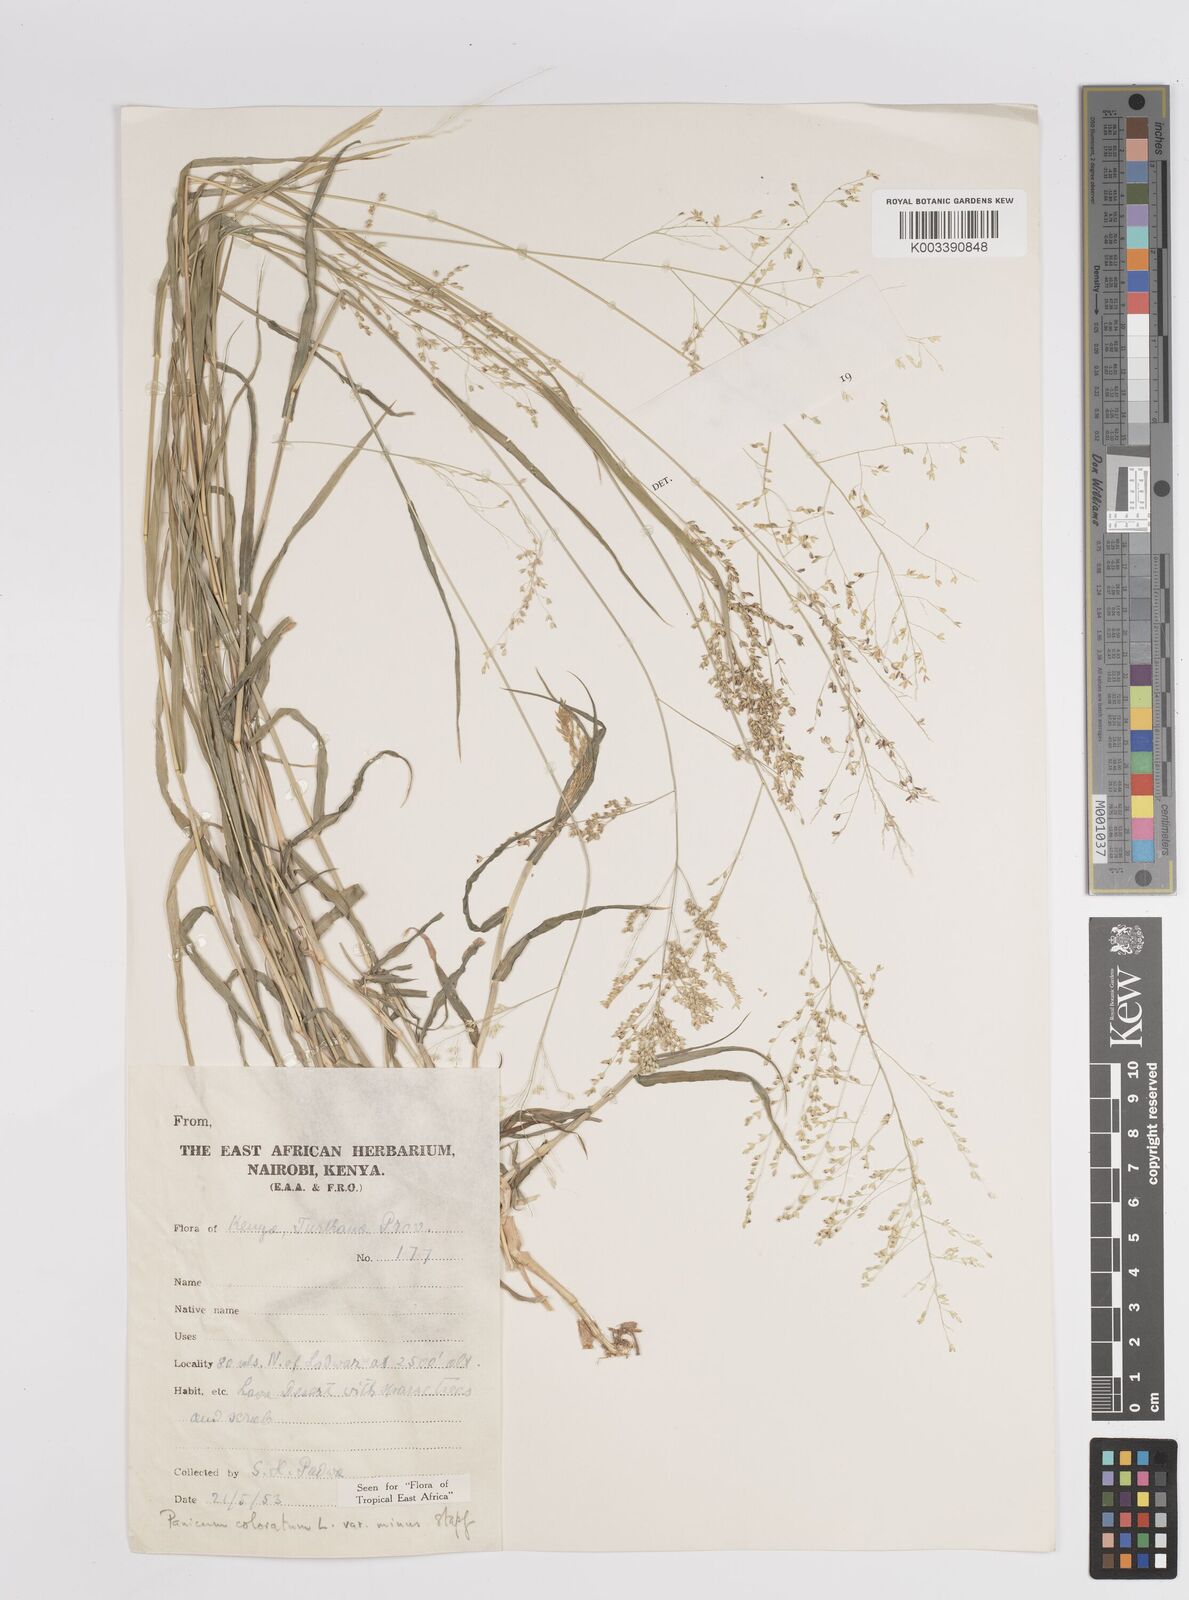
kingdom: Plantae
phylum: Tracheophyta
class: Liliopsida
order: Poales
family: Poaceae
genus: Panicum
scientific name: Panicum coloratum
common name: Kleingrass
